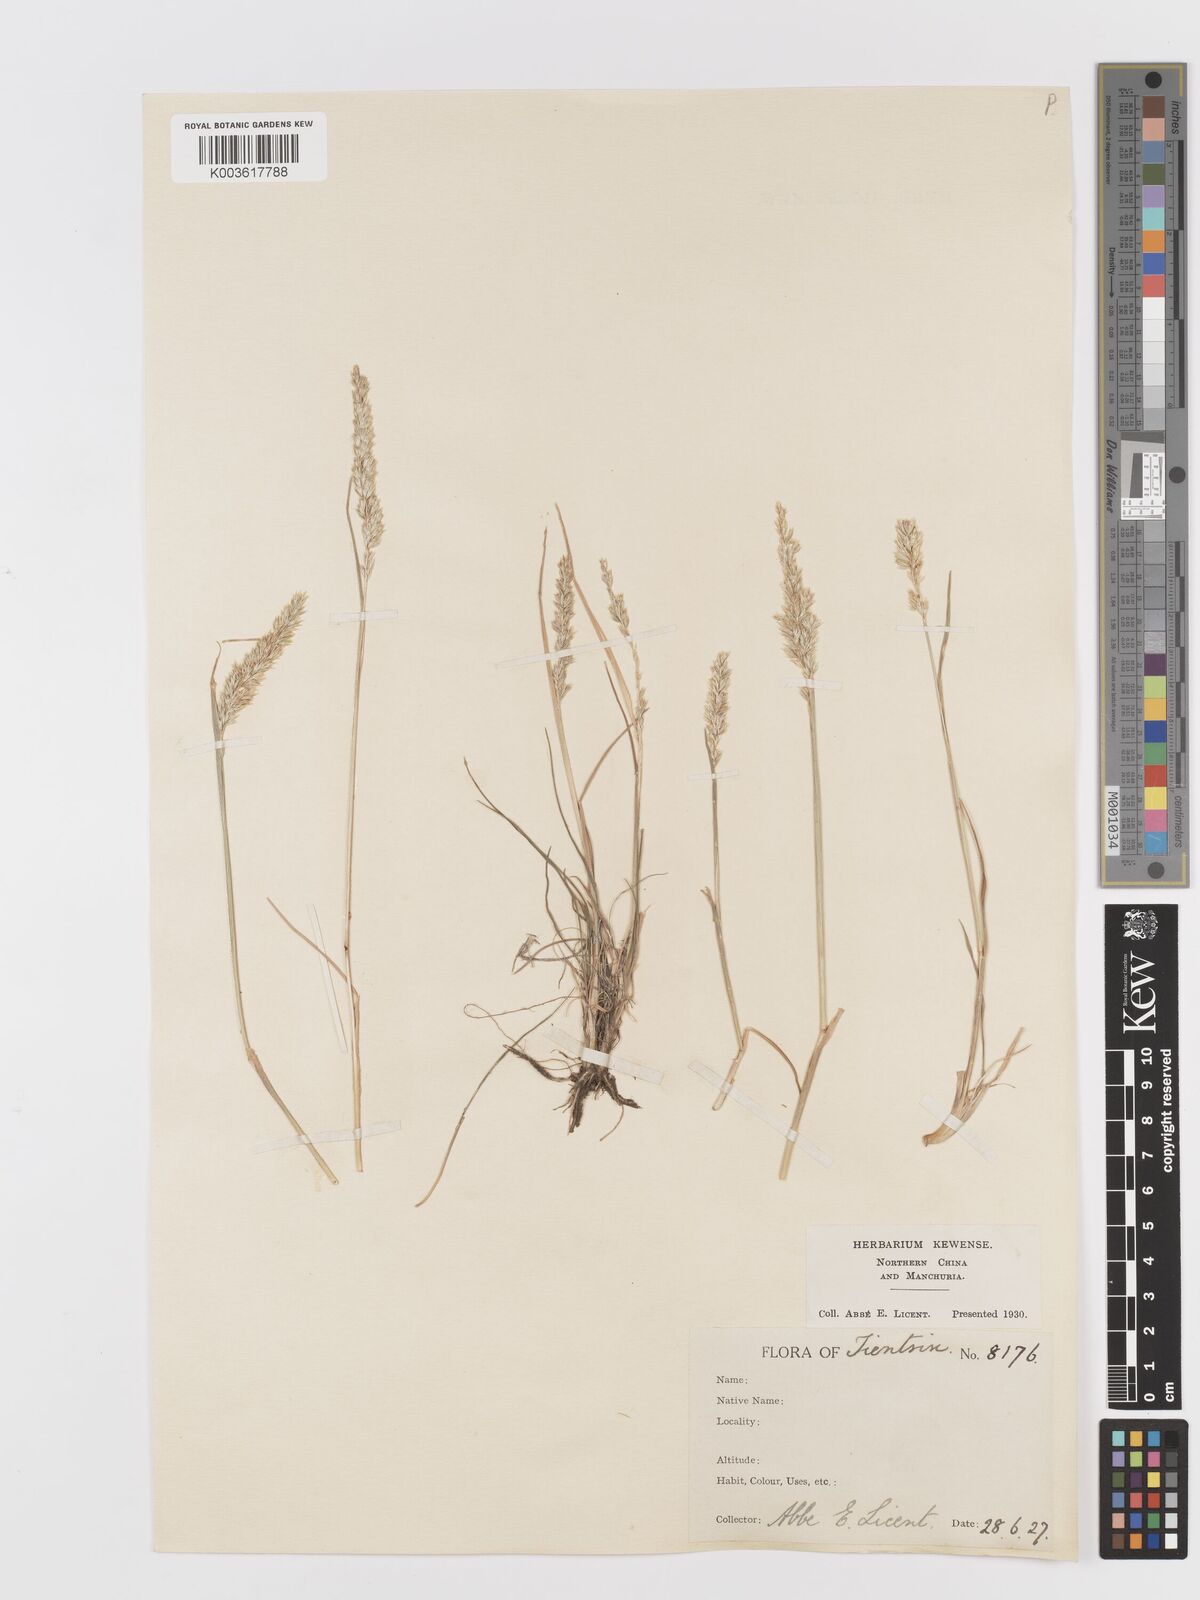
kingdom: Plantae
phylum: Tracheophyta
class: Liliopsida
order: Poales
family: Poaceae
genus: Koeleria
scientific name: Koeleria macrantha
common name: Crested hair-grass
